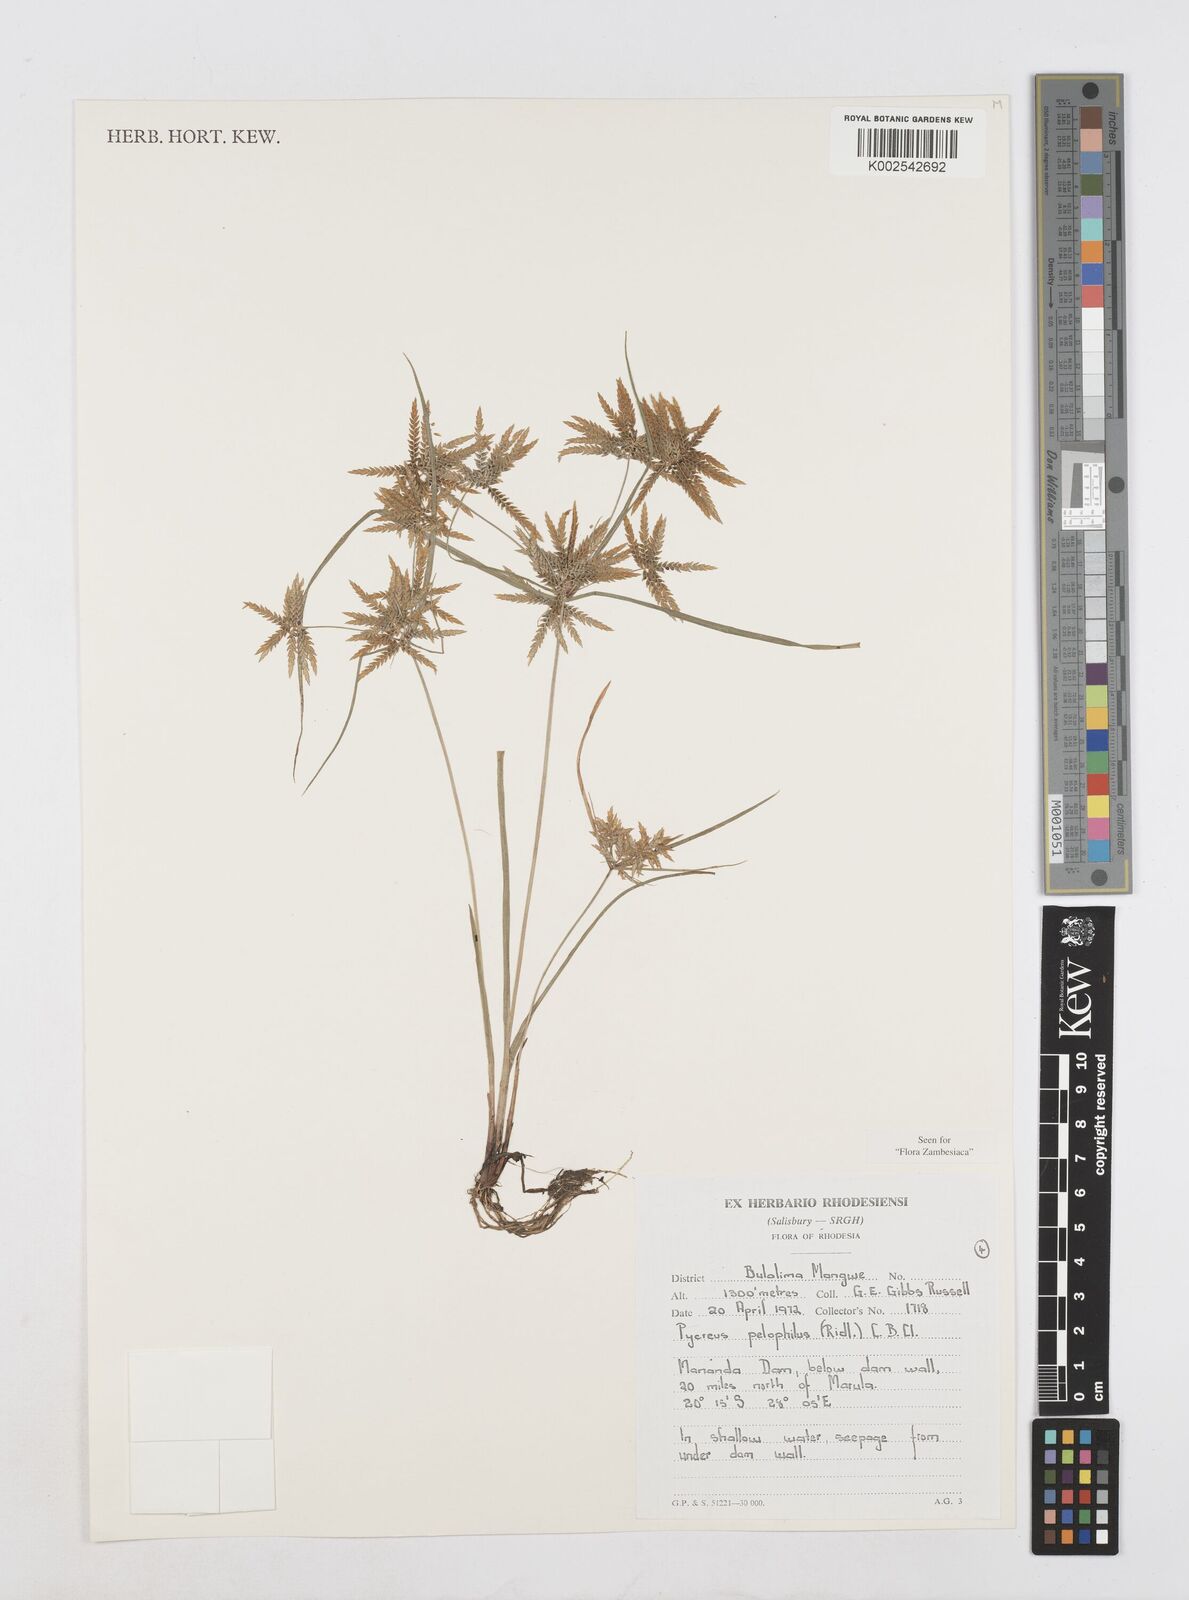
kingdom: Plantae
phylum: Tracheophyta
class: Liliopsida
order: Poales
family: Cyperaceae
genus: Cyperus
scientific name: Cyperus pelophilus
